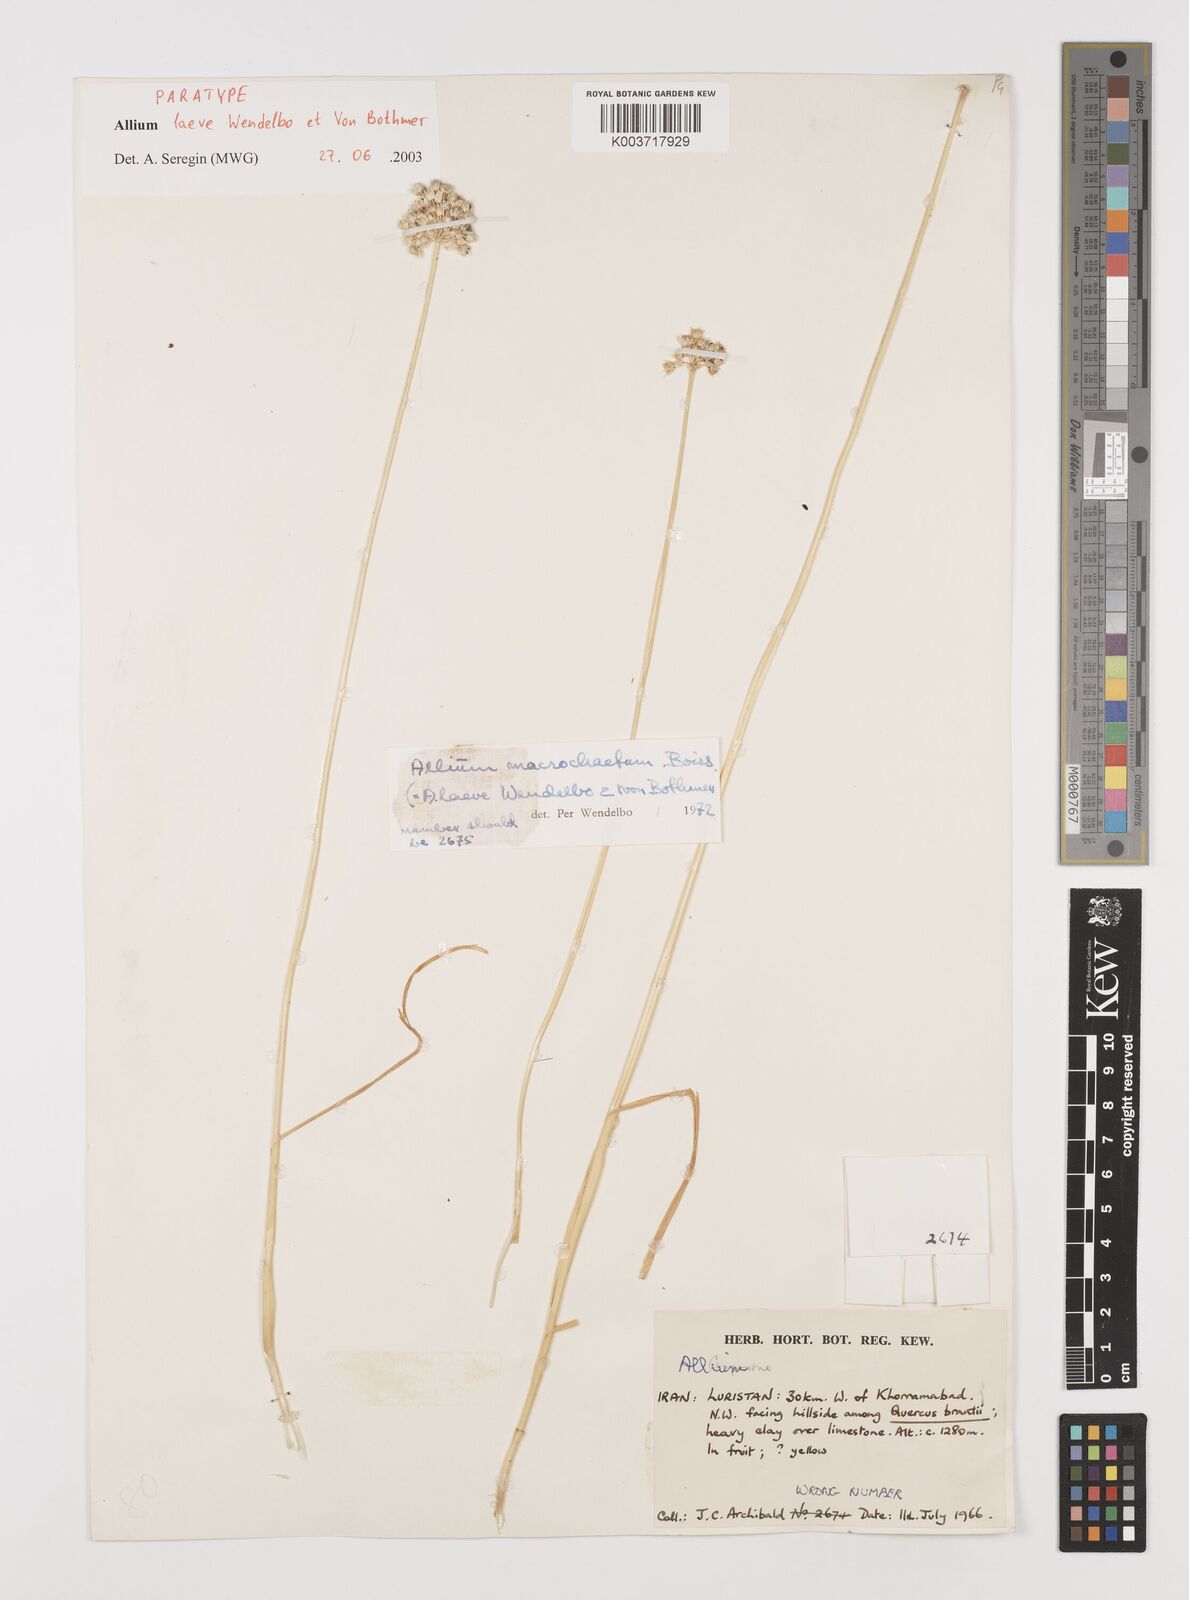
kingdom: Plantae
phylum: Tracheophyta
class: Liliopsida
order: Asparagales
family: Amaryllidaceae
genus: Allium
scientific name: Allium macrochaetum
